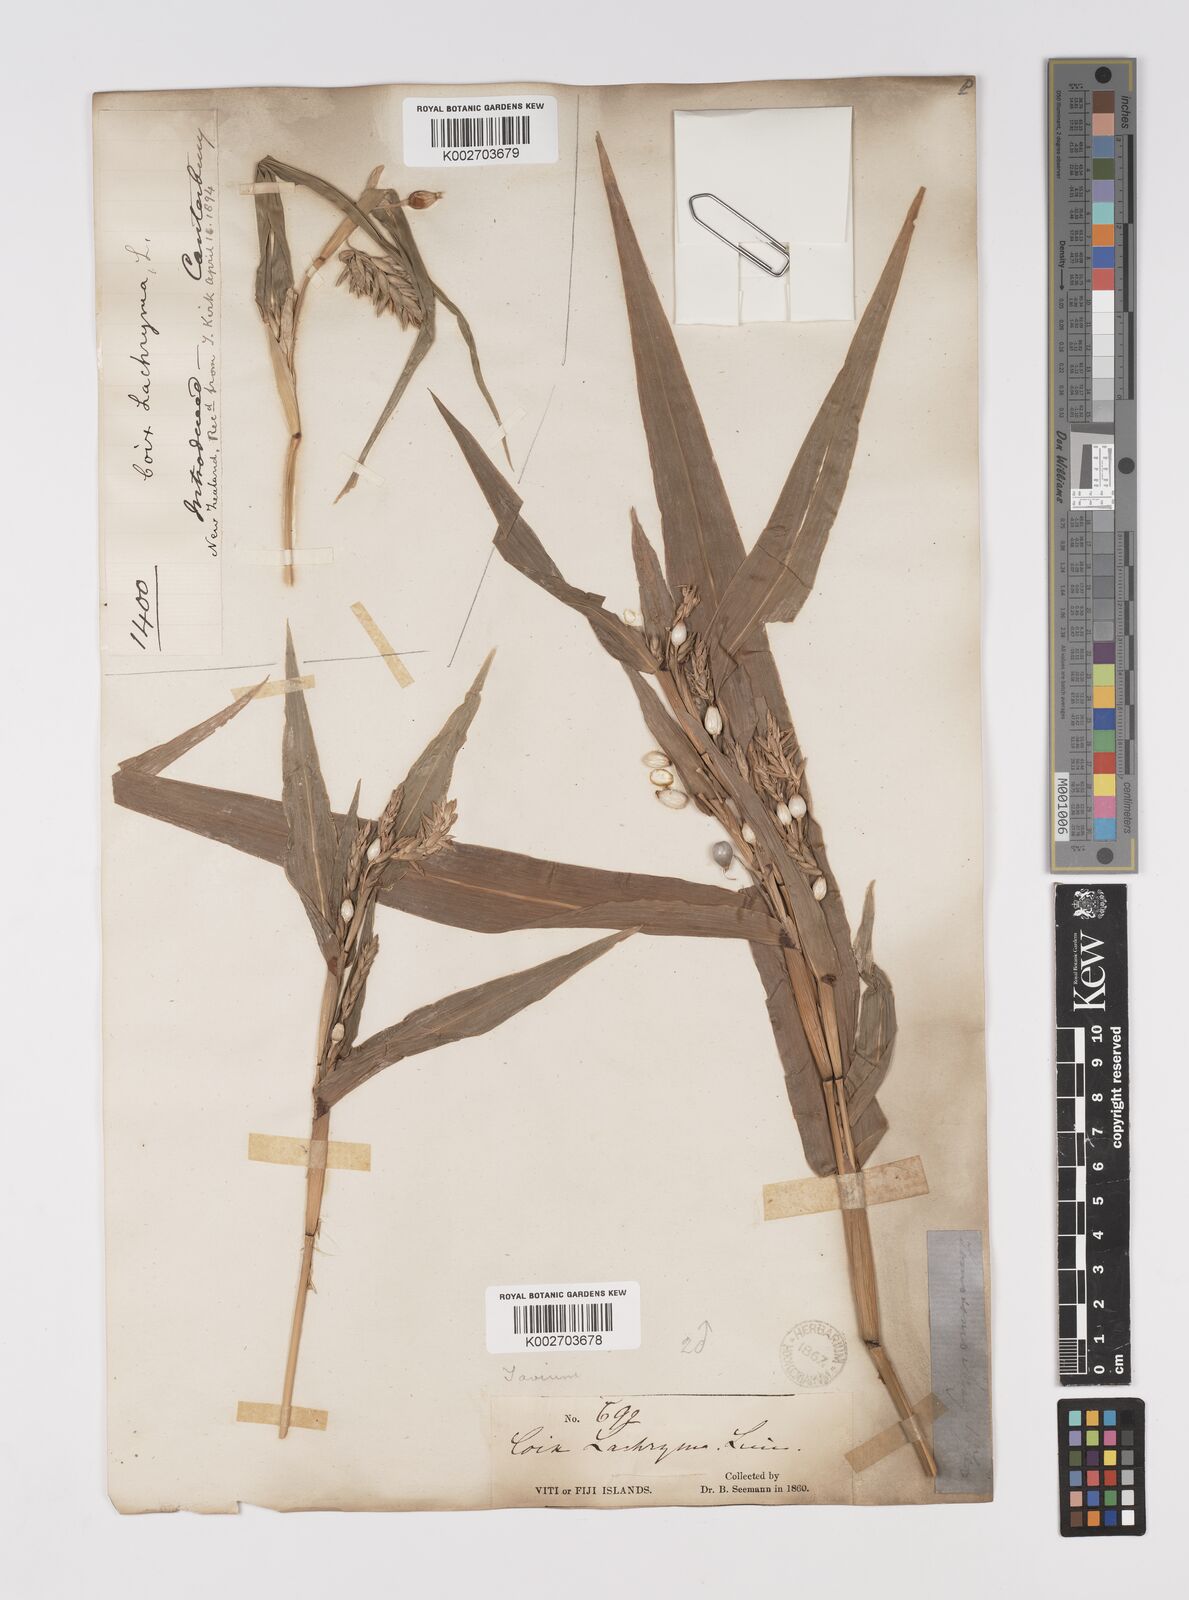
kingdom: Plantae
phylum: Tracheophyta
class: Liliopsida
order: Poales
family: Poaceae
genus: Coix
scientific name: Coix lacryma-jobi
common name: Job's tears
